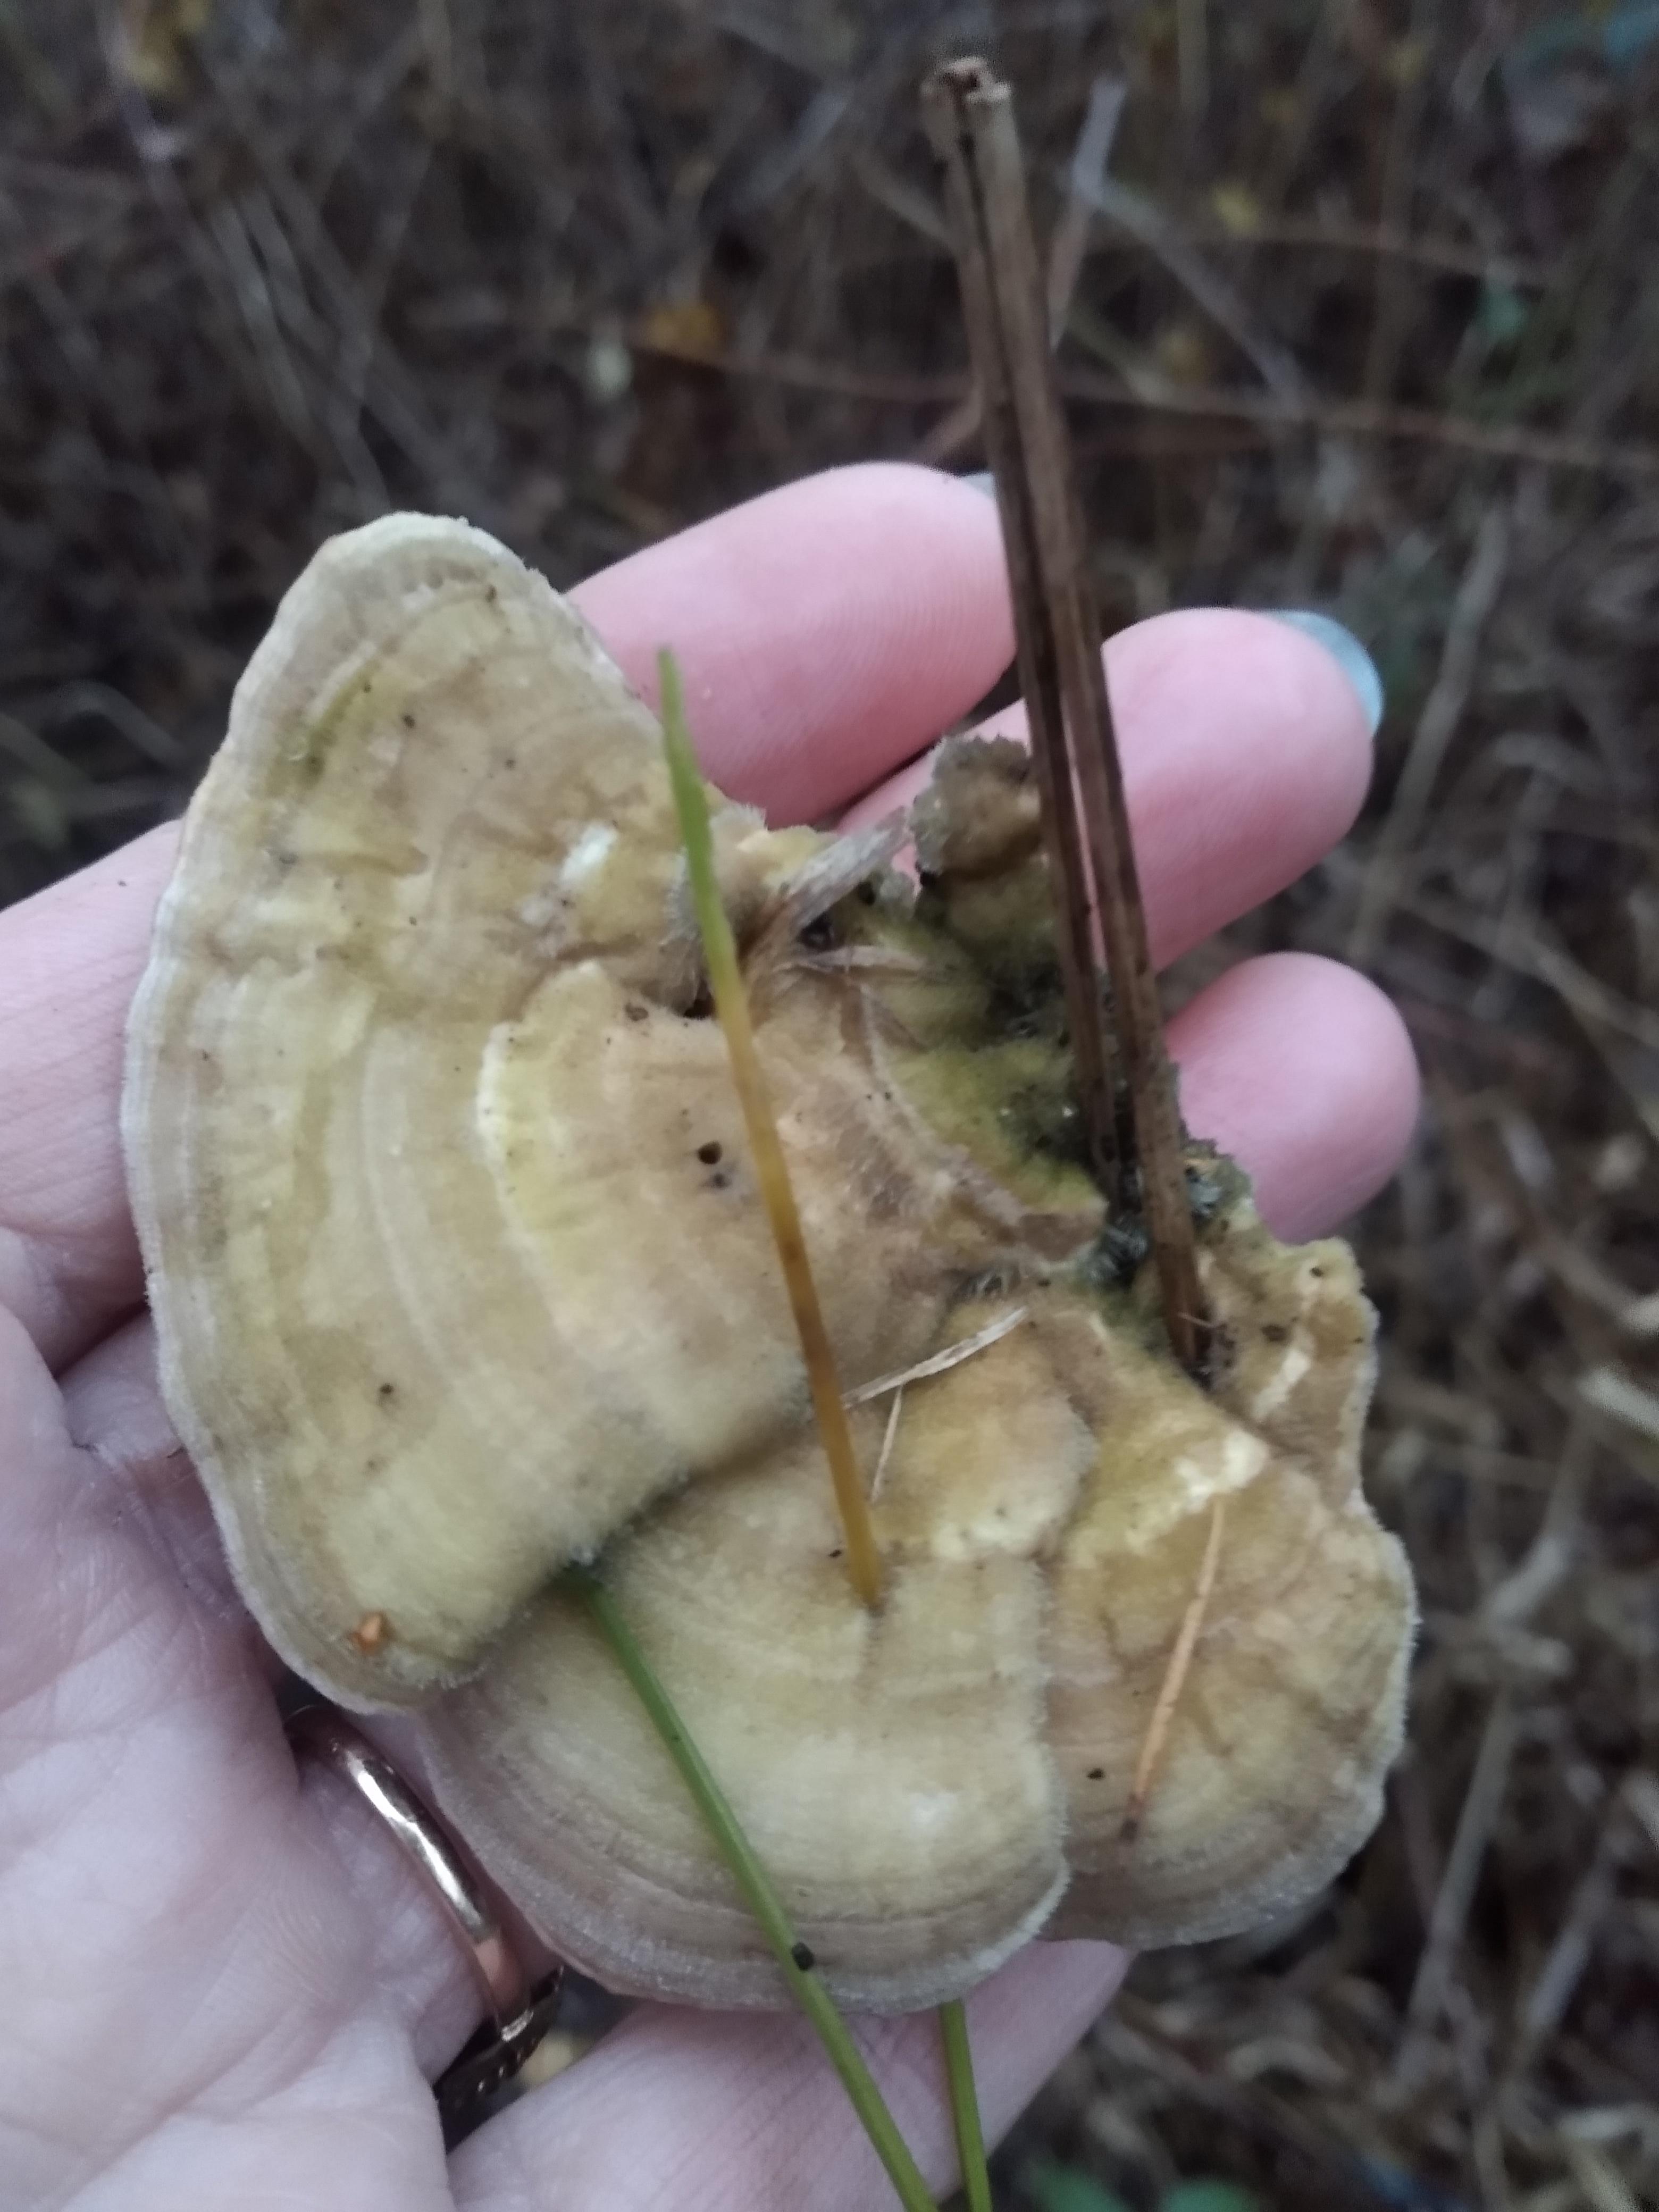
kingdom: Fungi
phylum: Basidiomycota
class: Agaricomycetes
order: Polyporales
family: Polyporaceae
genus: Lenzites
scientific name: Lenzites betulinus
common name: birke-læderporesvamp
